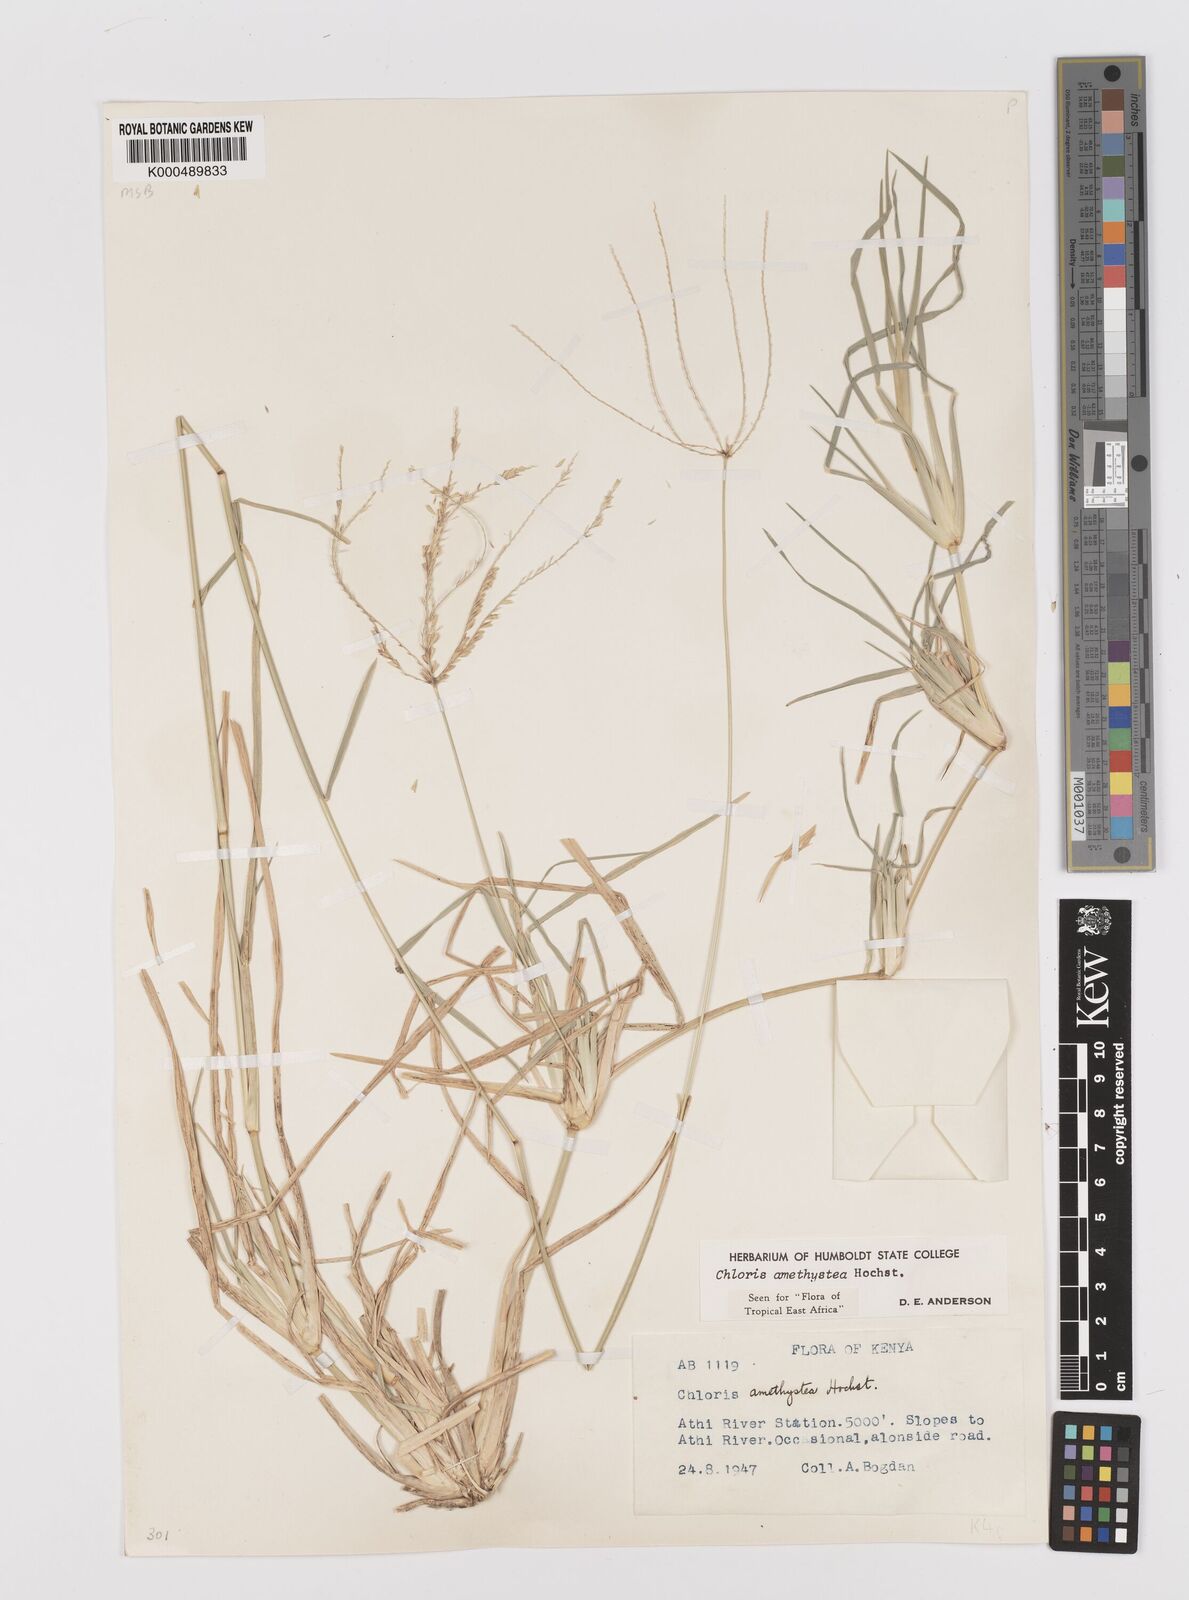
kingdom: Plantae
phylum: Tracheophyta
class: Liliopsida
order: Poales
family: Poaceae
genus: Chloris
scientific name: Chloris amethystea
